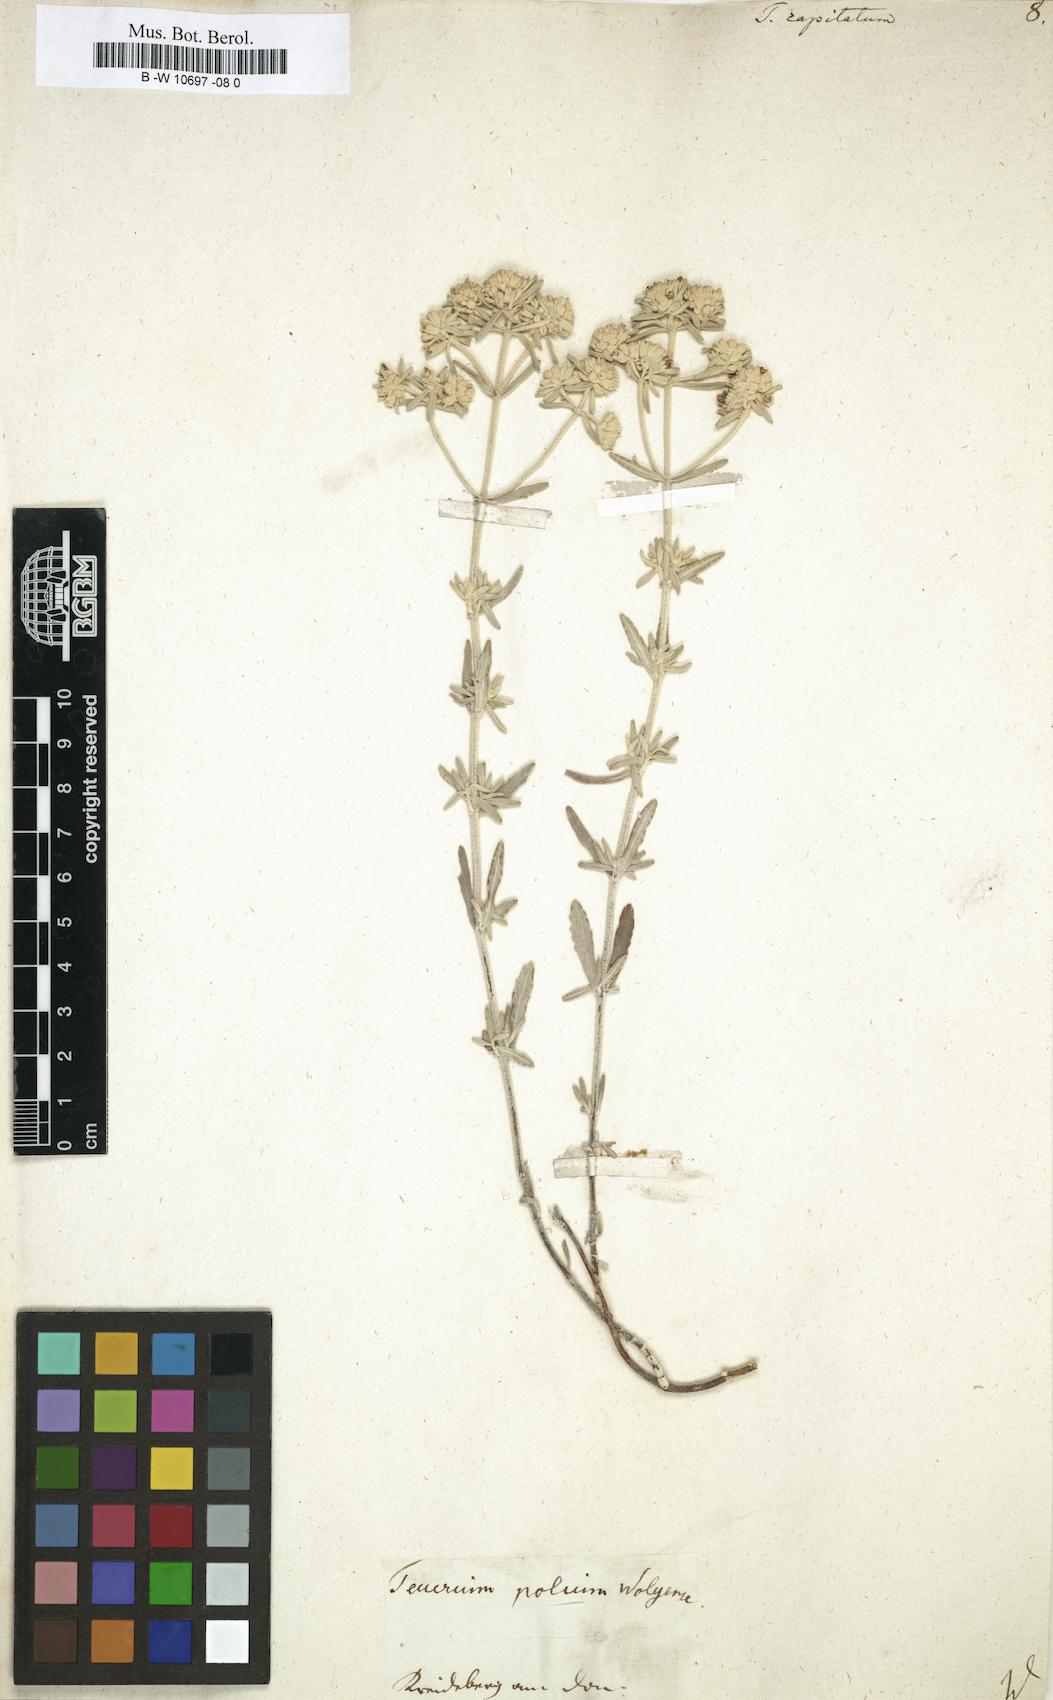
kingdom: Plantae
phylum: Tracheophyta
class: Magnoliopsida
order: Lamiales
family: Lamiaceae
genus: Teucrium
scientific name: Teucrium capitatum
